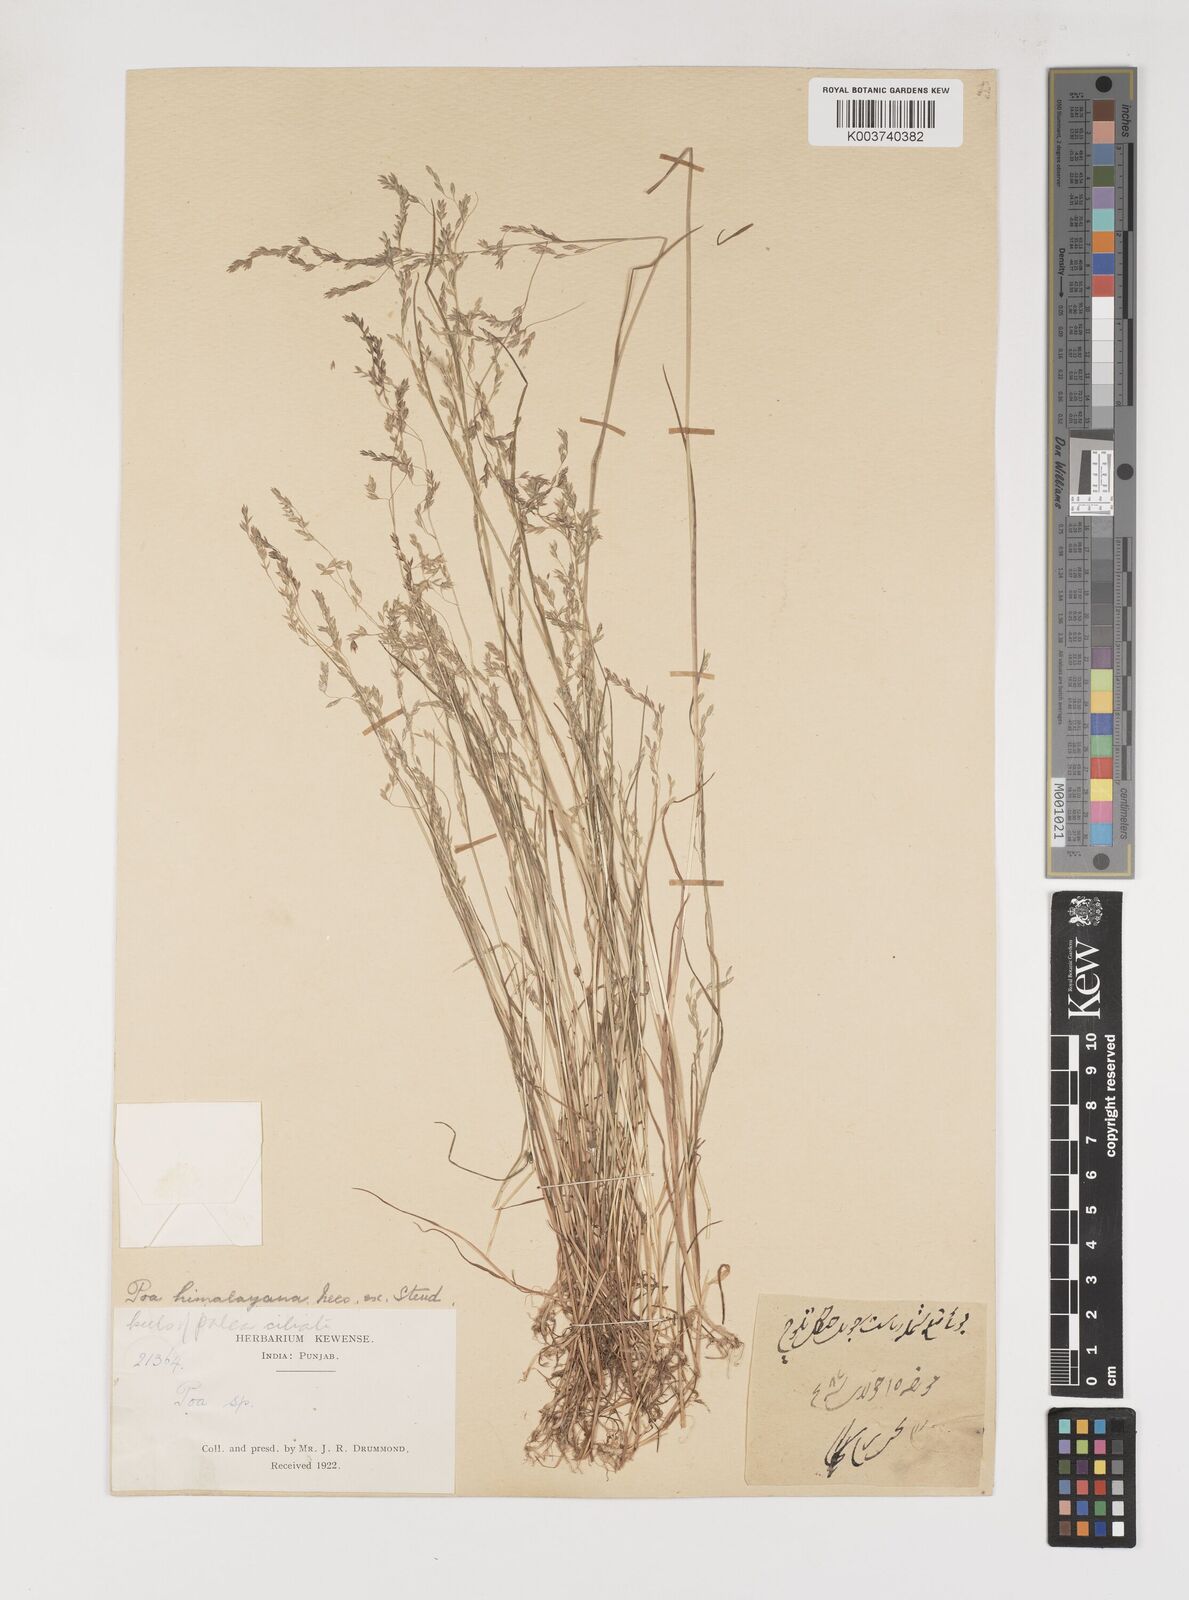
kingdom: Plantae
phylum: Tracheophyta
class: Liliopsida
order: Poales
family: Poaceae
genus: Poa
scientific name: Poa stewartiana
